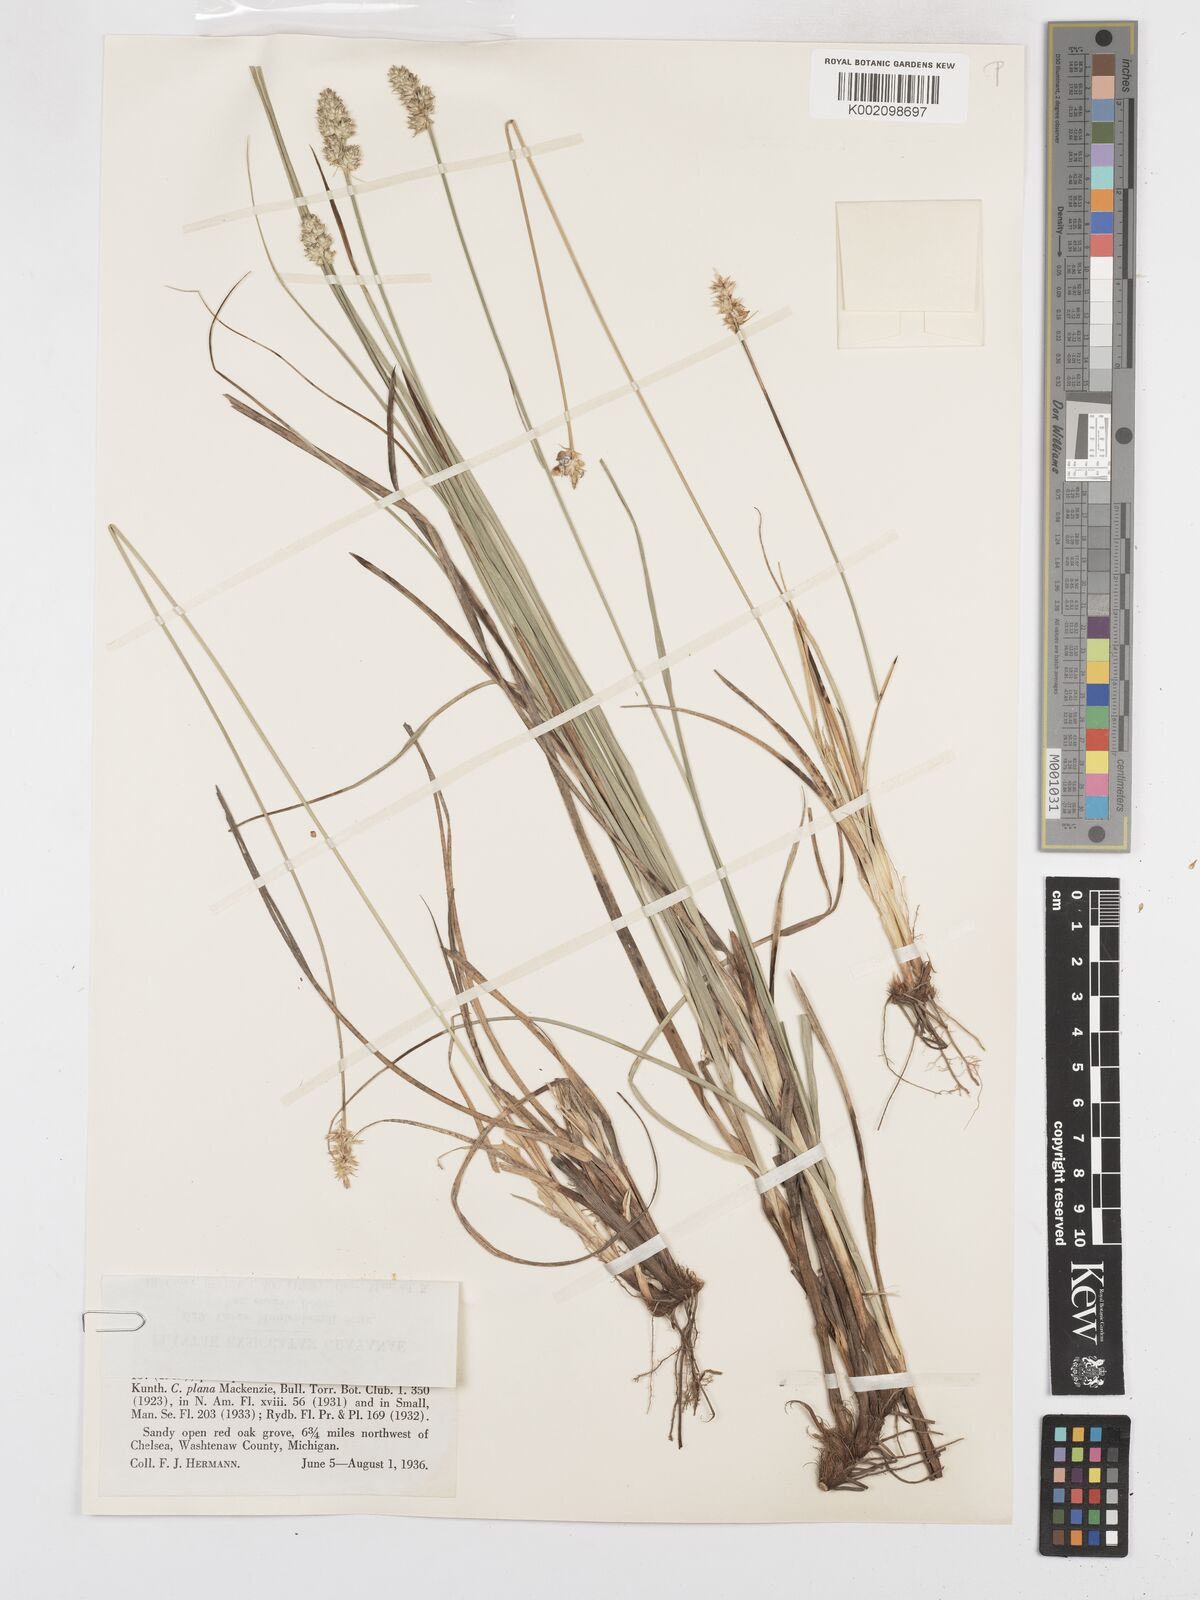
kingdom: Plantae
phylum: Tracheophyta
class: Liliopsida
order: Poales
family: Cyperaceae
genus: Carex
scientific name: Carex muehlenbergii
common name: Muhlenberg's bracted sedge
